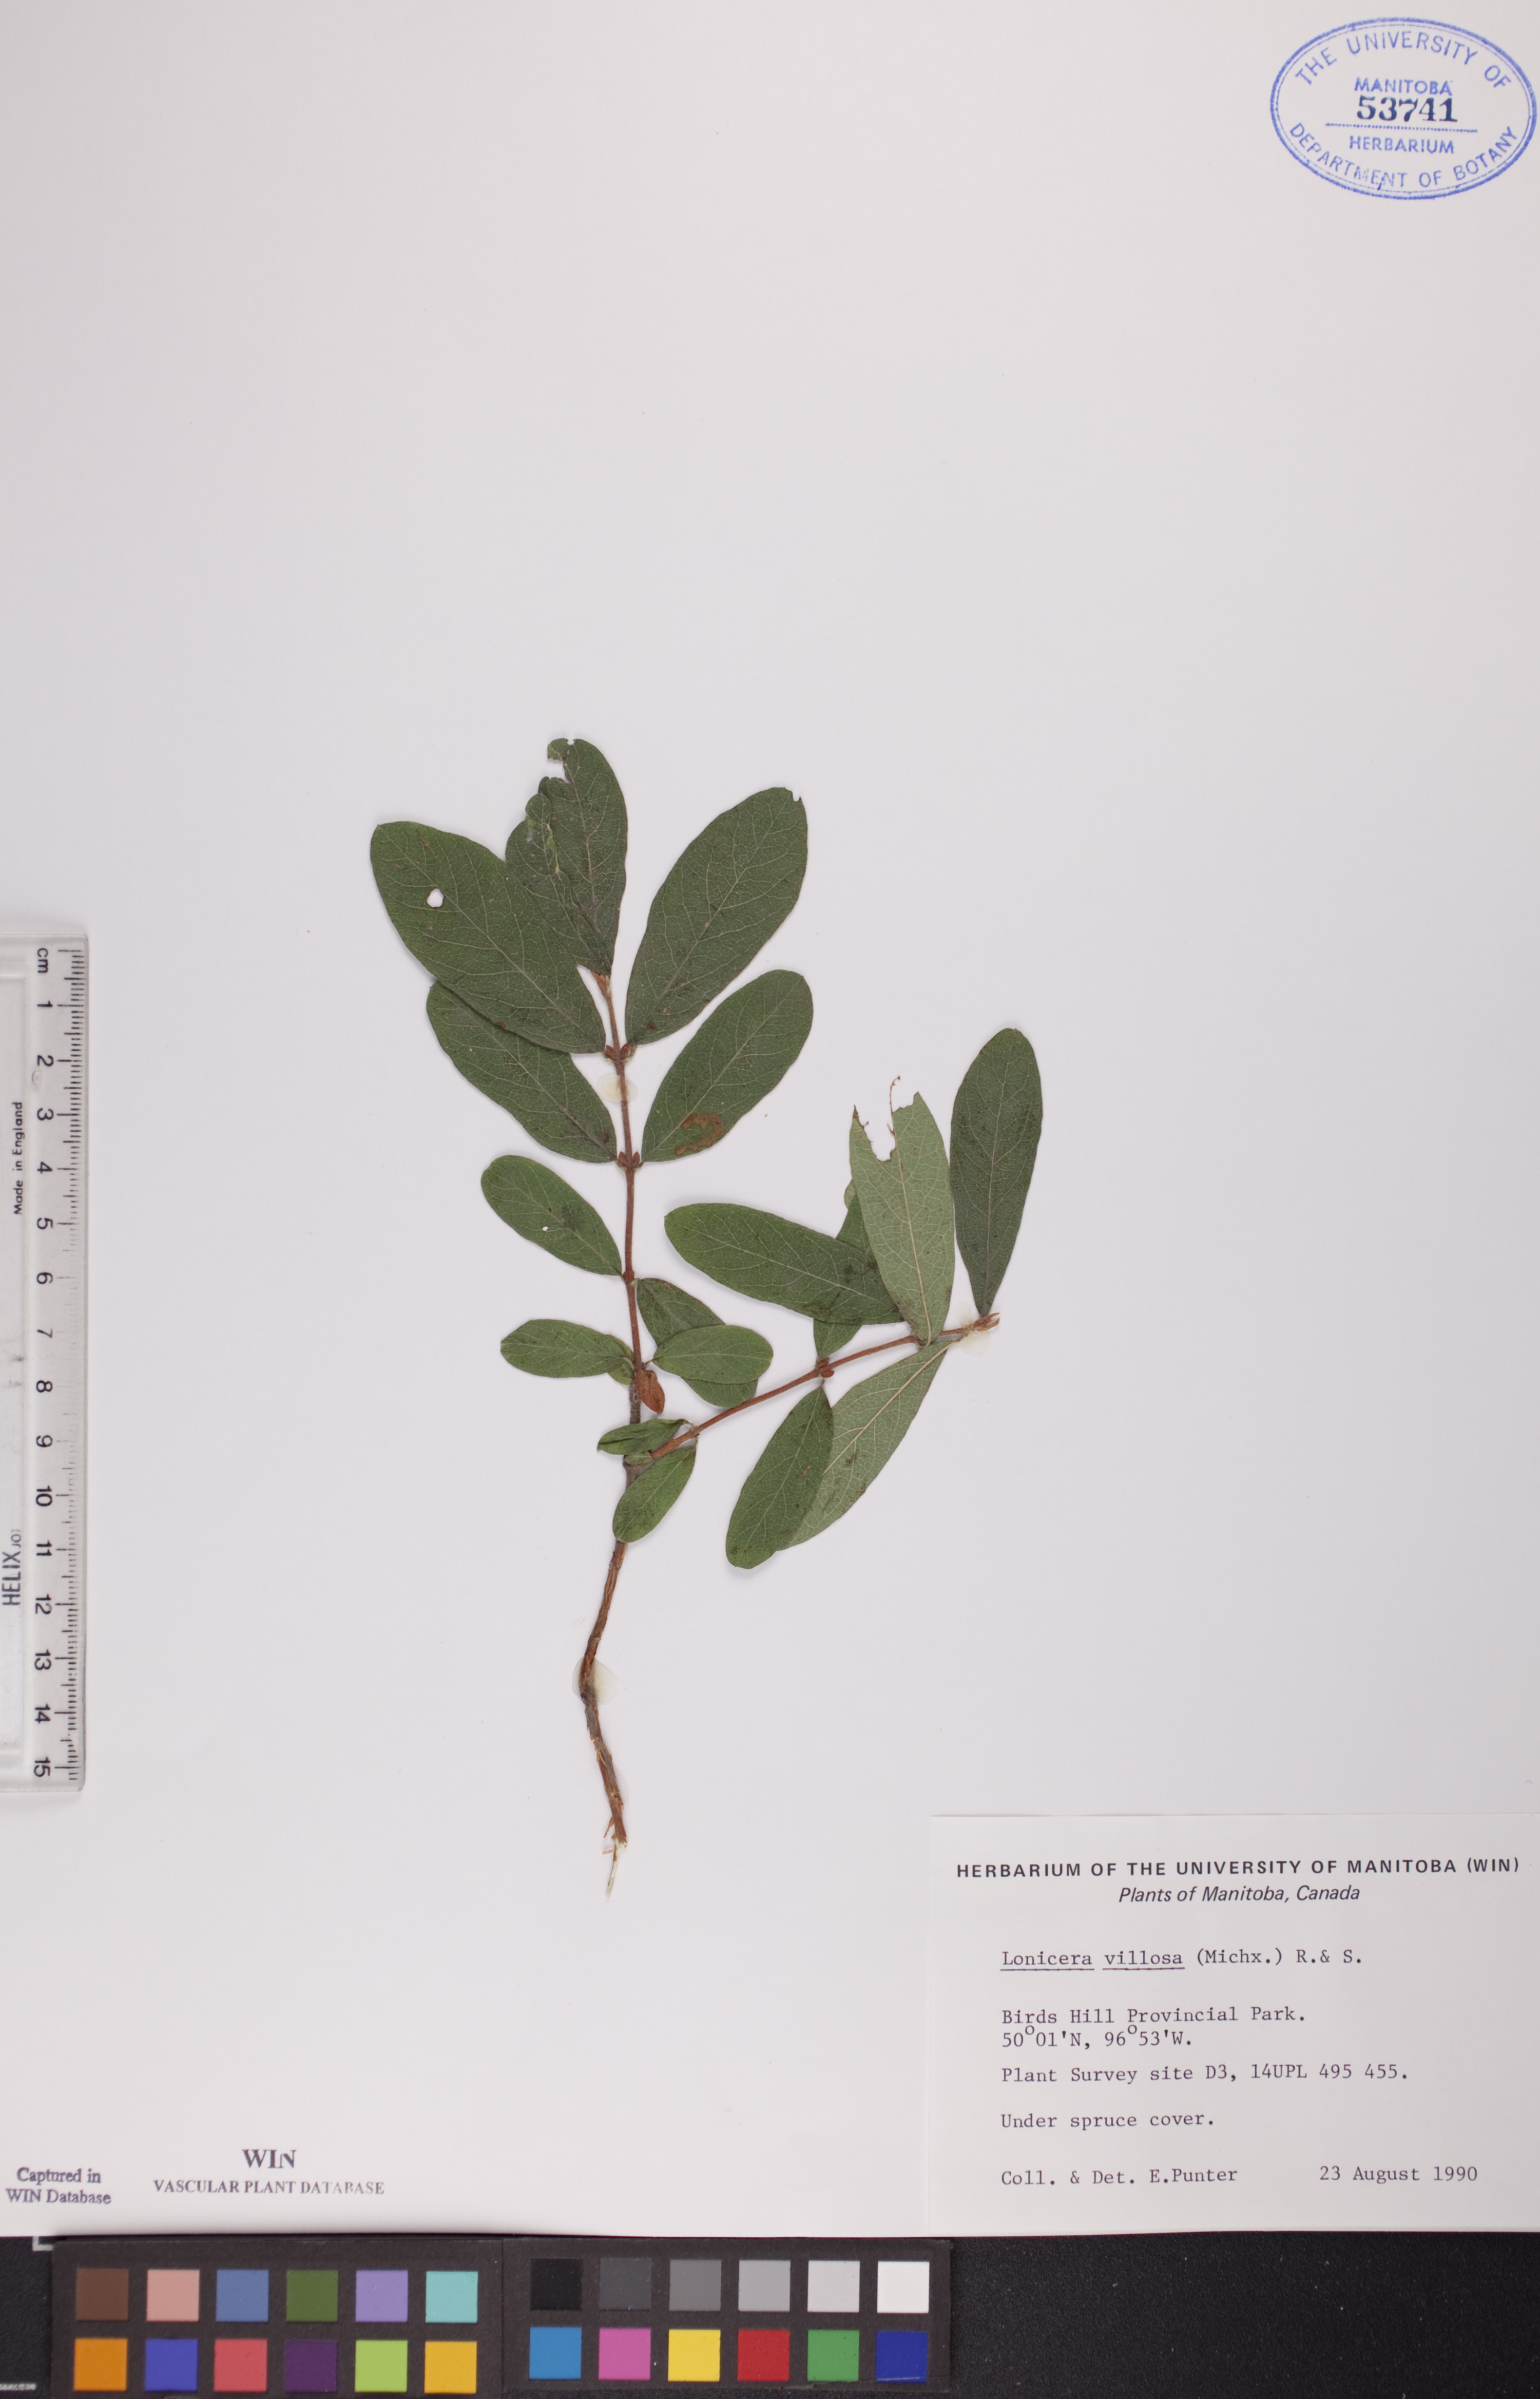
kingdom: Plantae
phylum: Tracheophyta
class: Magnoliopsida
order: Dipsacales
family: Caprifoliaceae
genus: Lonicera
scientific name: Lonicera villosa
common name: Mountain fly-honeysuckle
